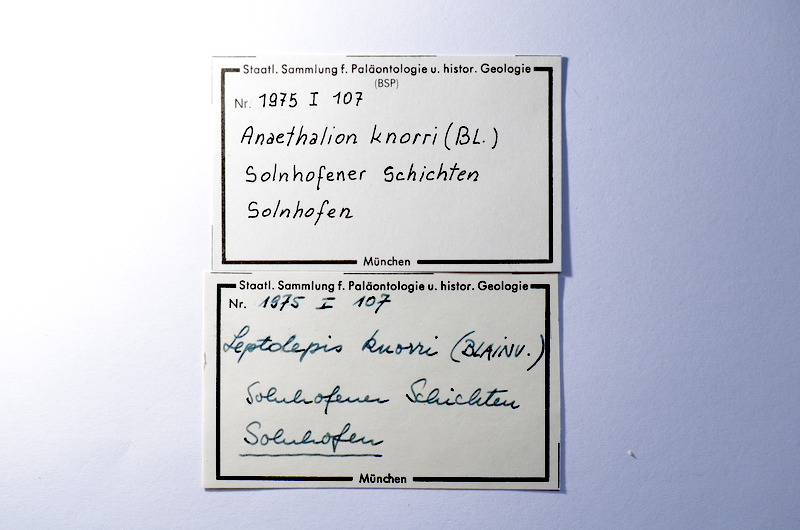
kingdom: Animalia
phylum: Chordata
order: Elopiformes
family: Anaethalionidae
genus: Anaethalion
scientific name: Anaethalion knorri
